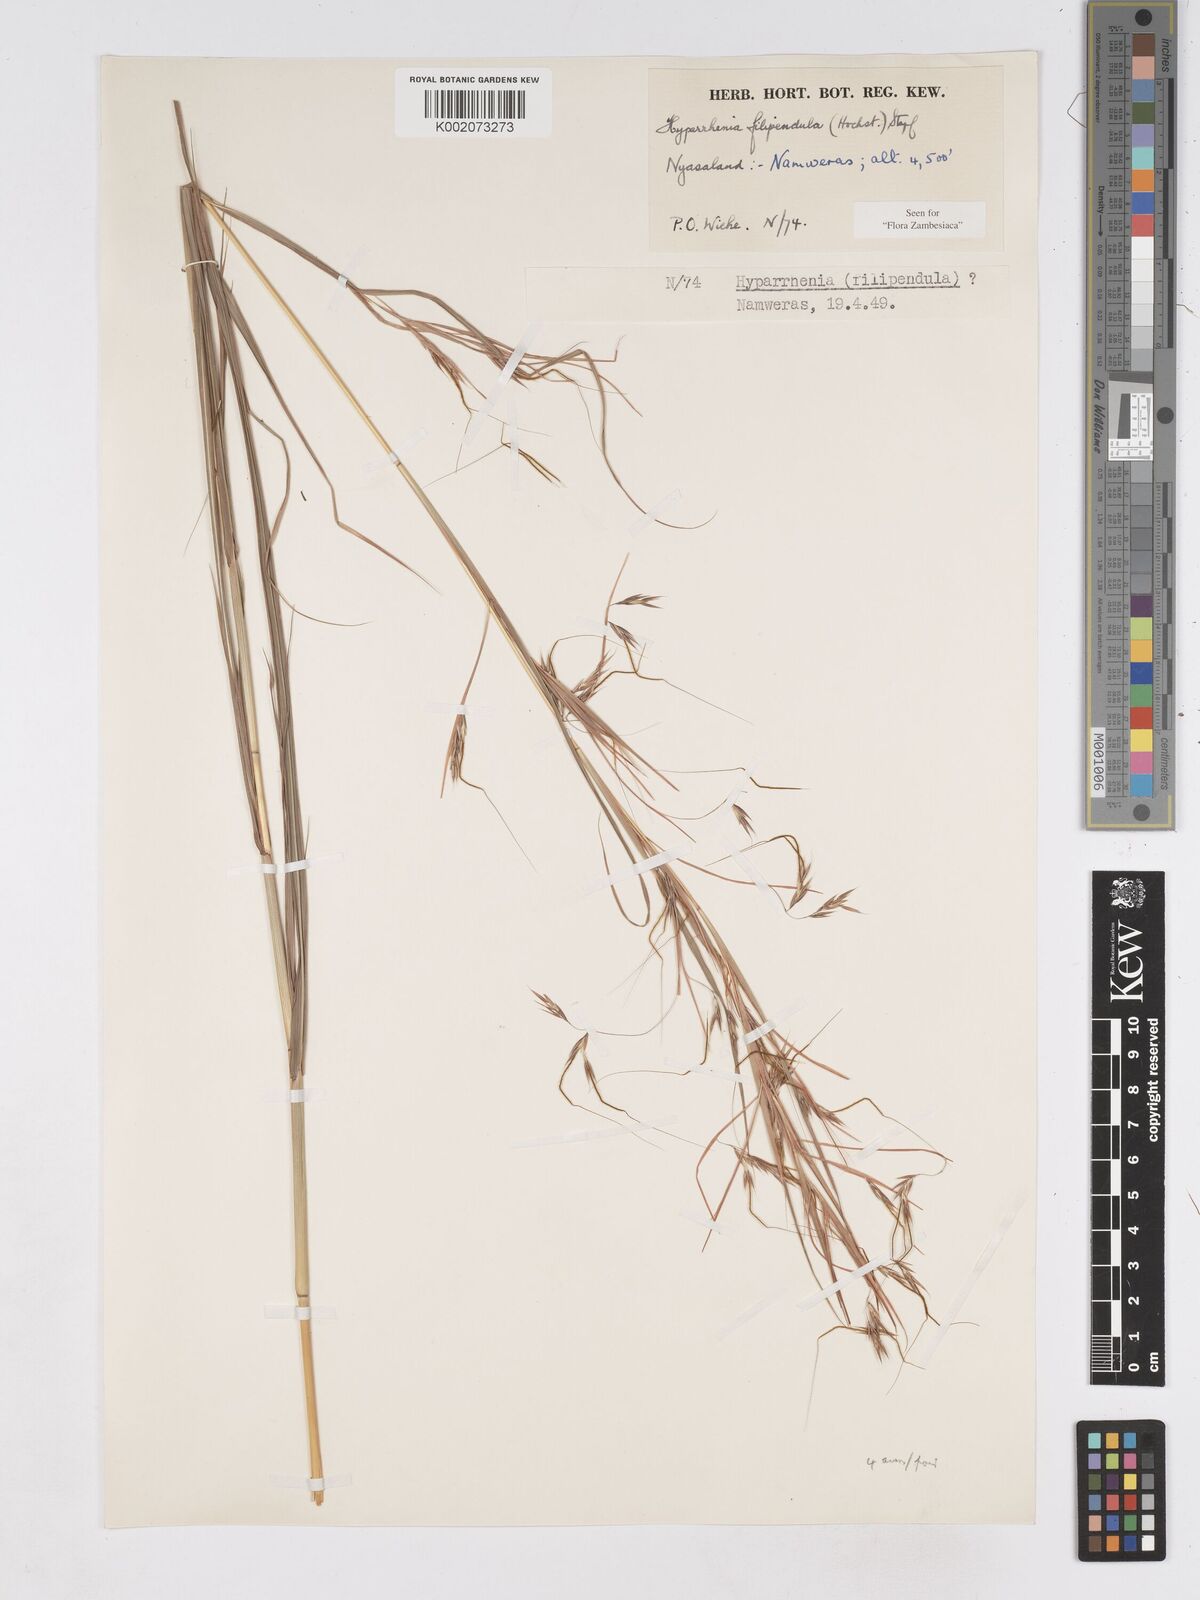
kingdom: Plantae
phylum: Tracheophyta
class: Liliopsida
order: Poales
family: Poaceae
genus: Hyparrhenia
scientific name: Hyparrhenia filipendula
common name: Tambookie grass
